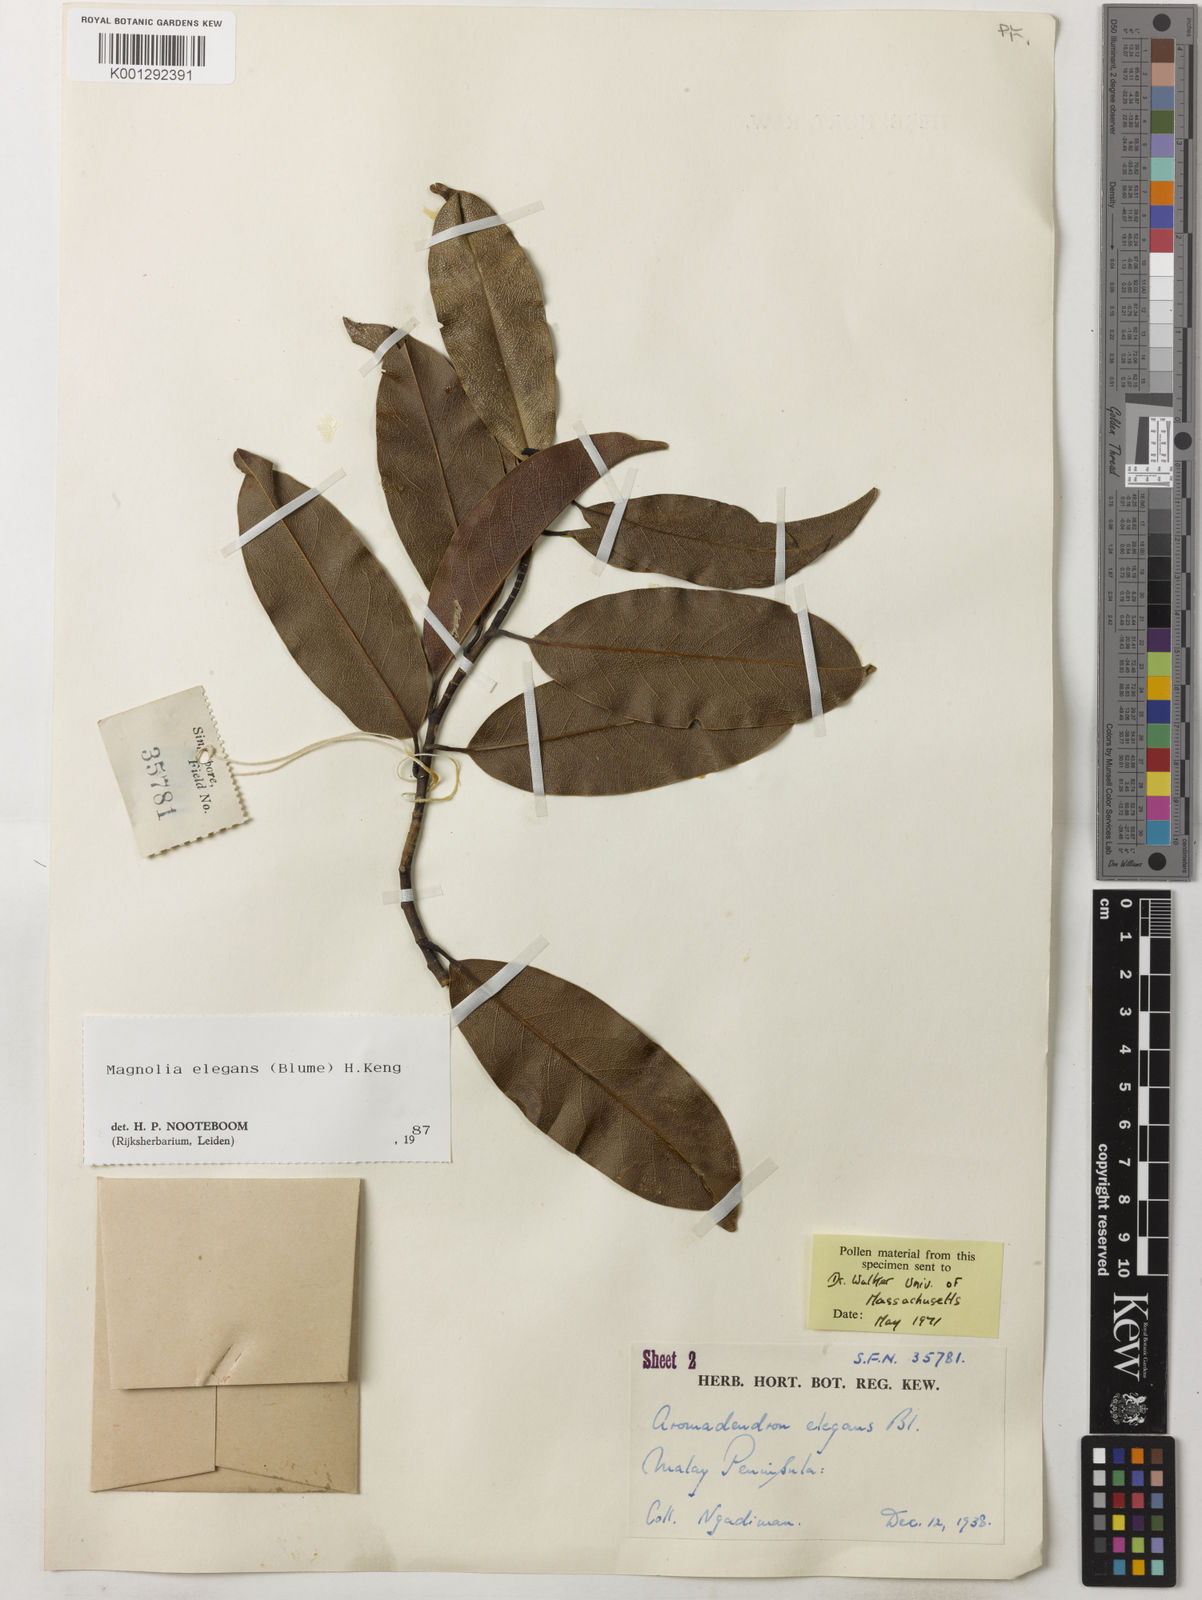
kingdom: Plantae
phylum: Tracheophyta
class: Magnoliopsida
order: Magnoliales
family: Magnoliaceae
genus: Magnolia
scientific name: Magnolia elegans
